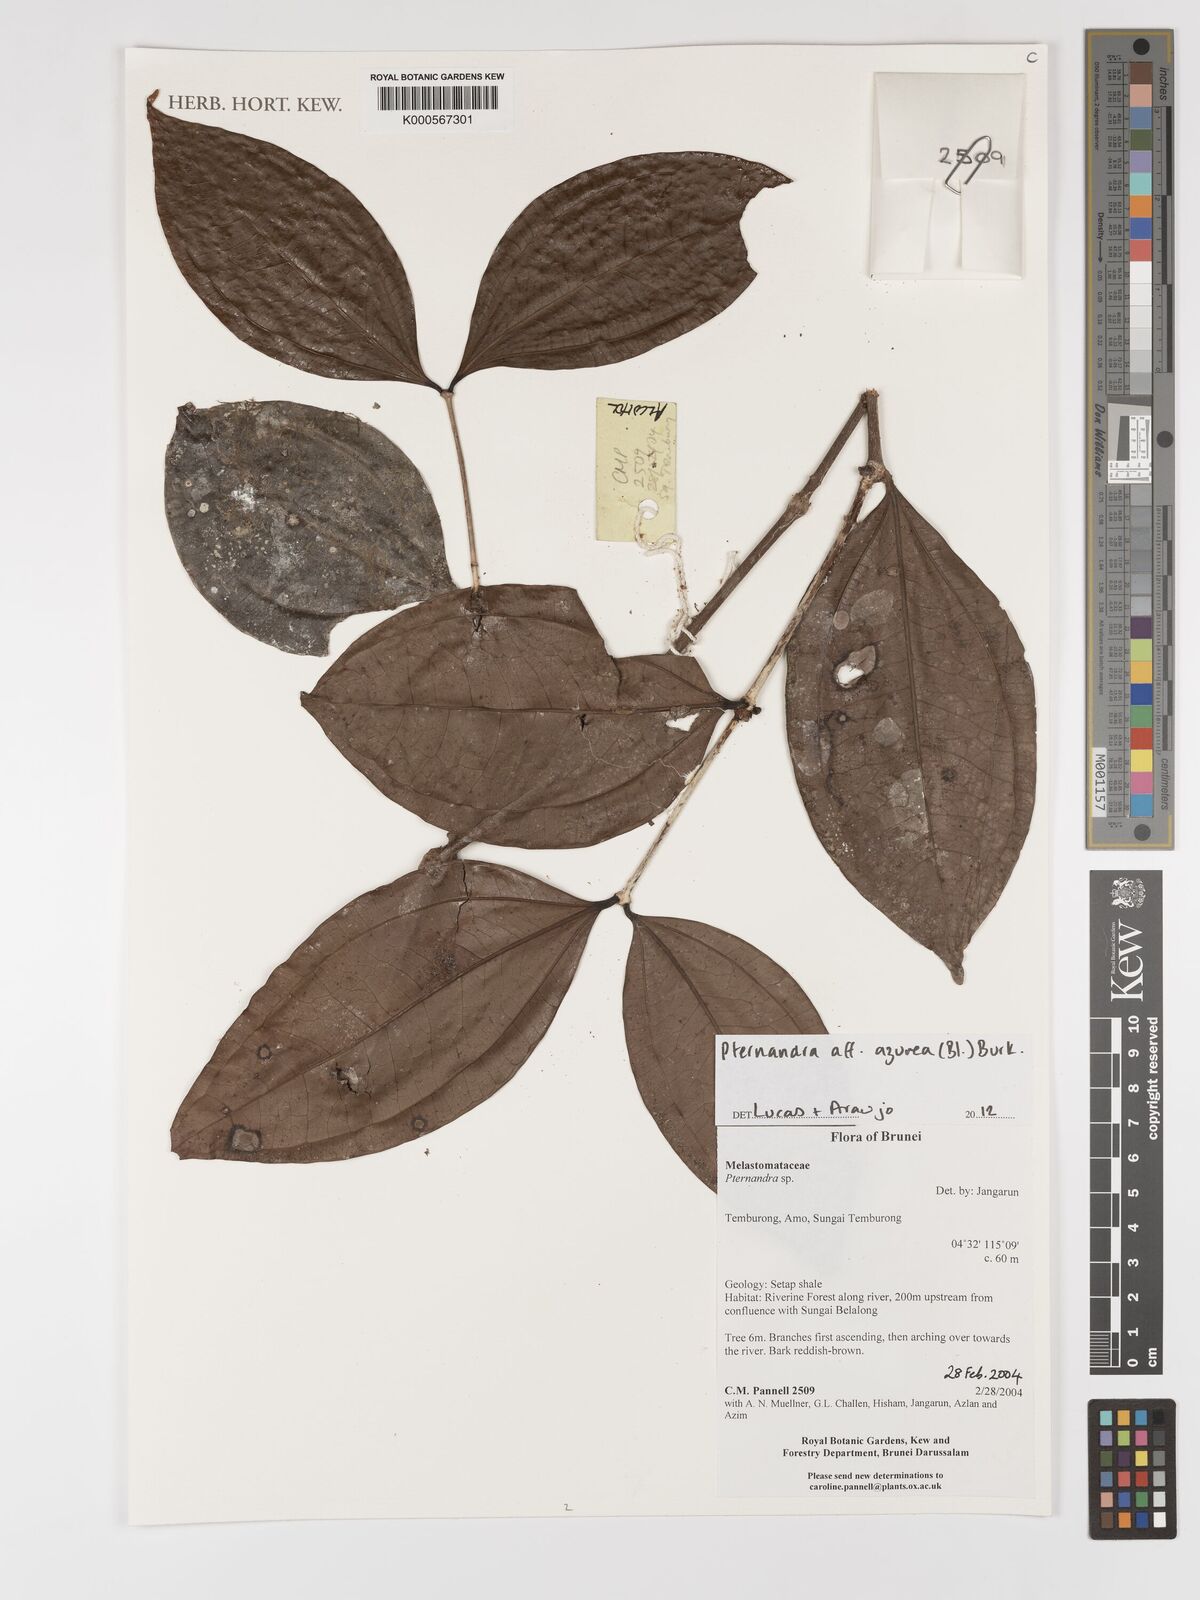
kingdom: Plantae
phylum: Tracheophyta
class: Magnoliopsida
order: Myrtales
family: Melastomataceae
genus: Pternandra
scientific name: Pternandra azurea
